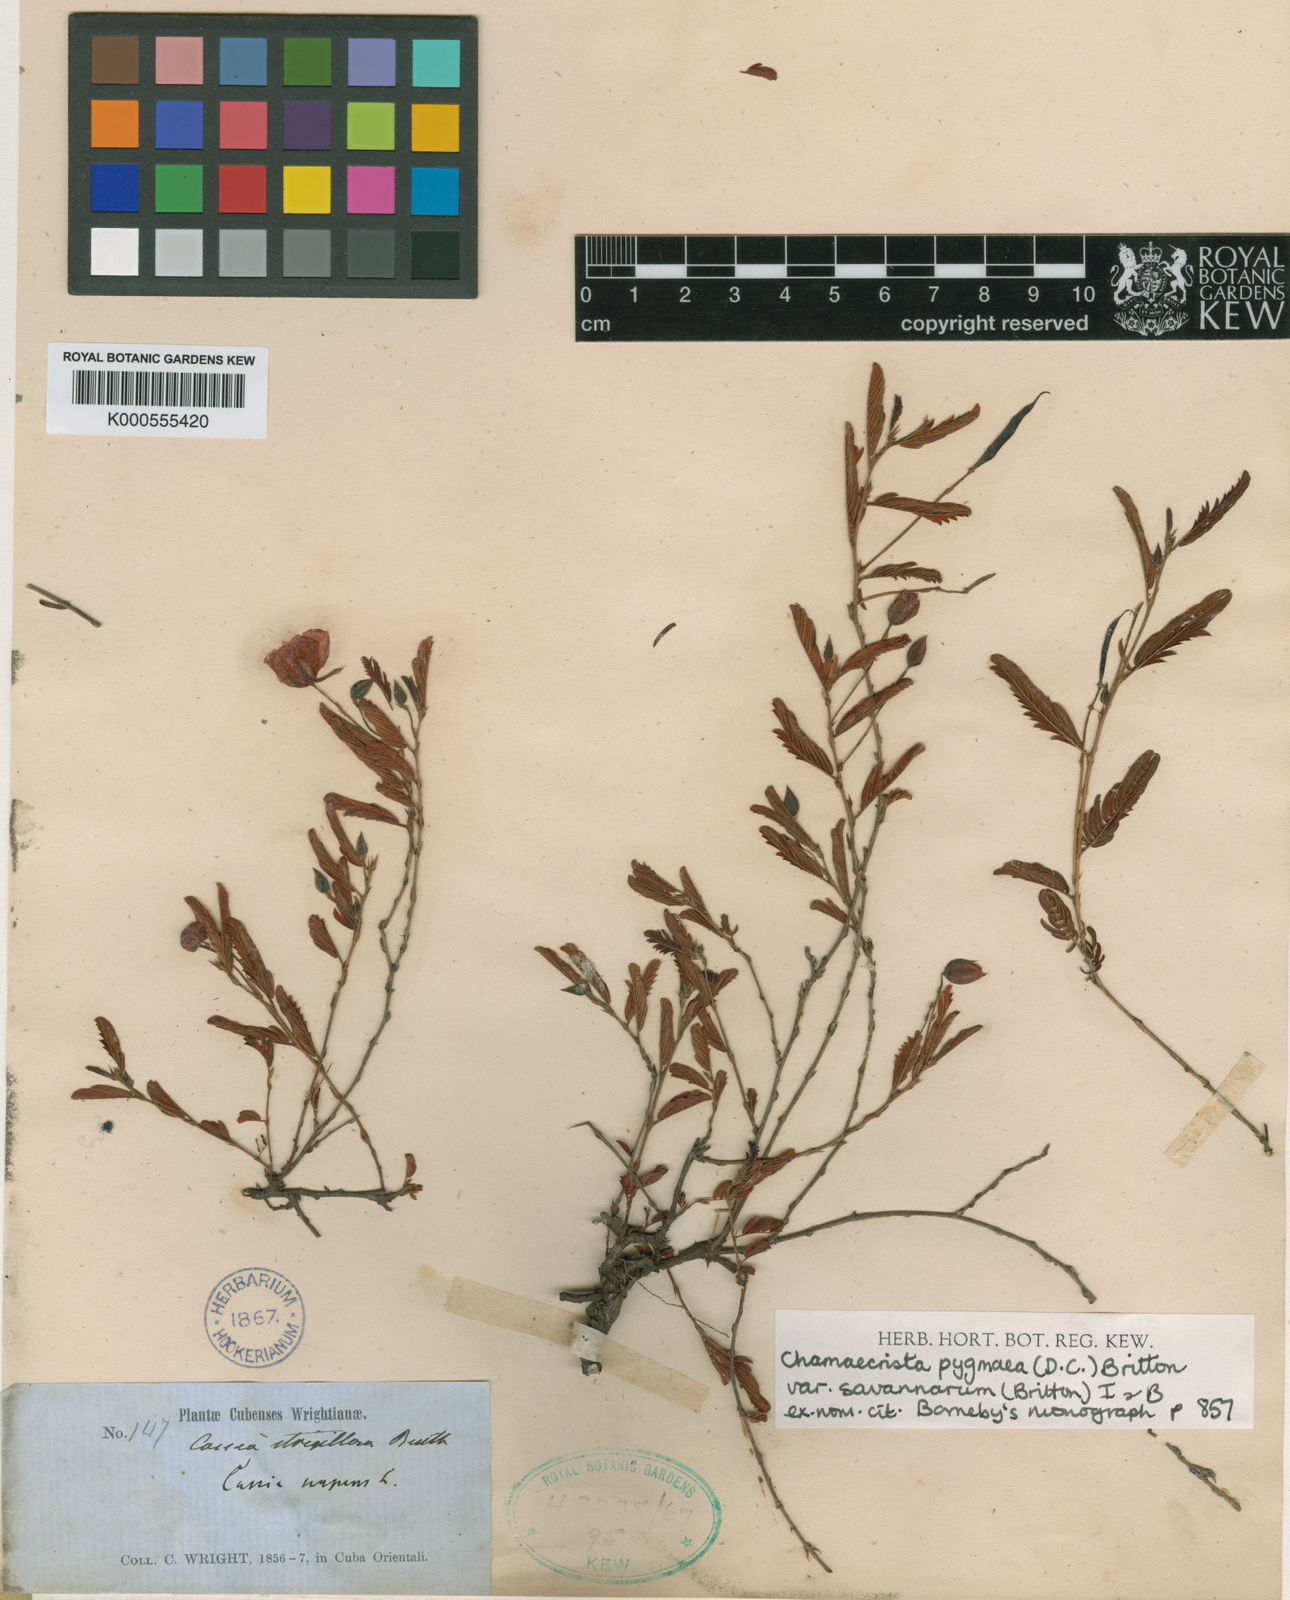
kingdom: Plantae
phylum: Tracheophyta
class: Magnoliopsida
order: Fabales
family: Fabaceae
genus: Chamaecrista
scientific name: Chamaecrista pygmaea
